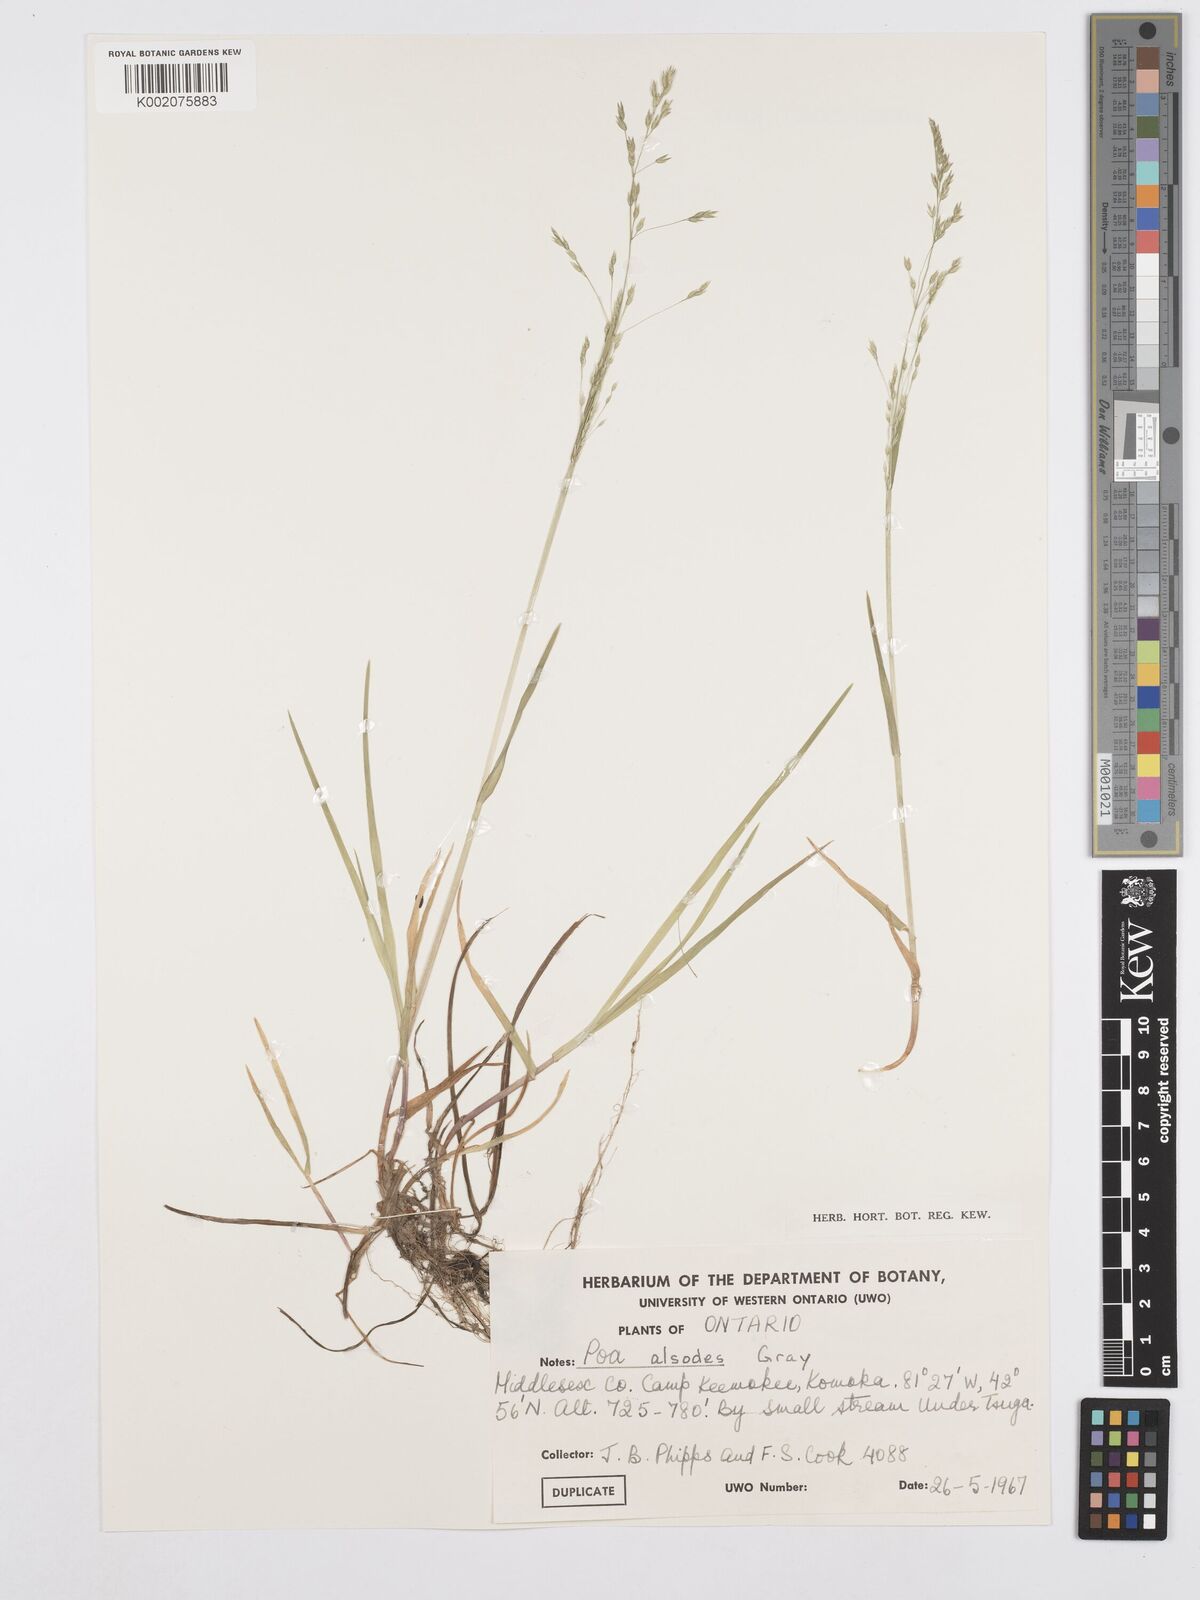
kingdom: Plantae
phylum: Tracheophyta
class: Liliopsida
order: Poales
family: Poaceae
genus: Poa
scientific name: Poa alsodes
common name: Grove bluegrass
